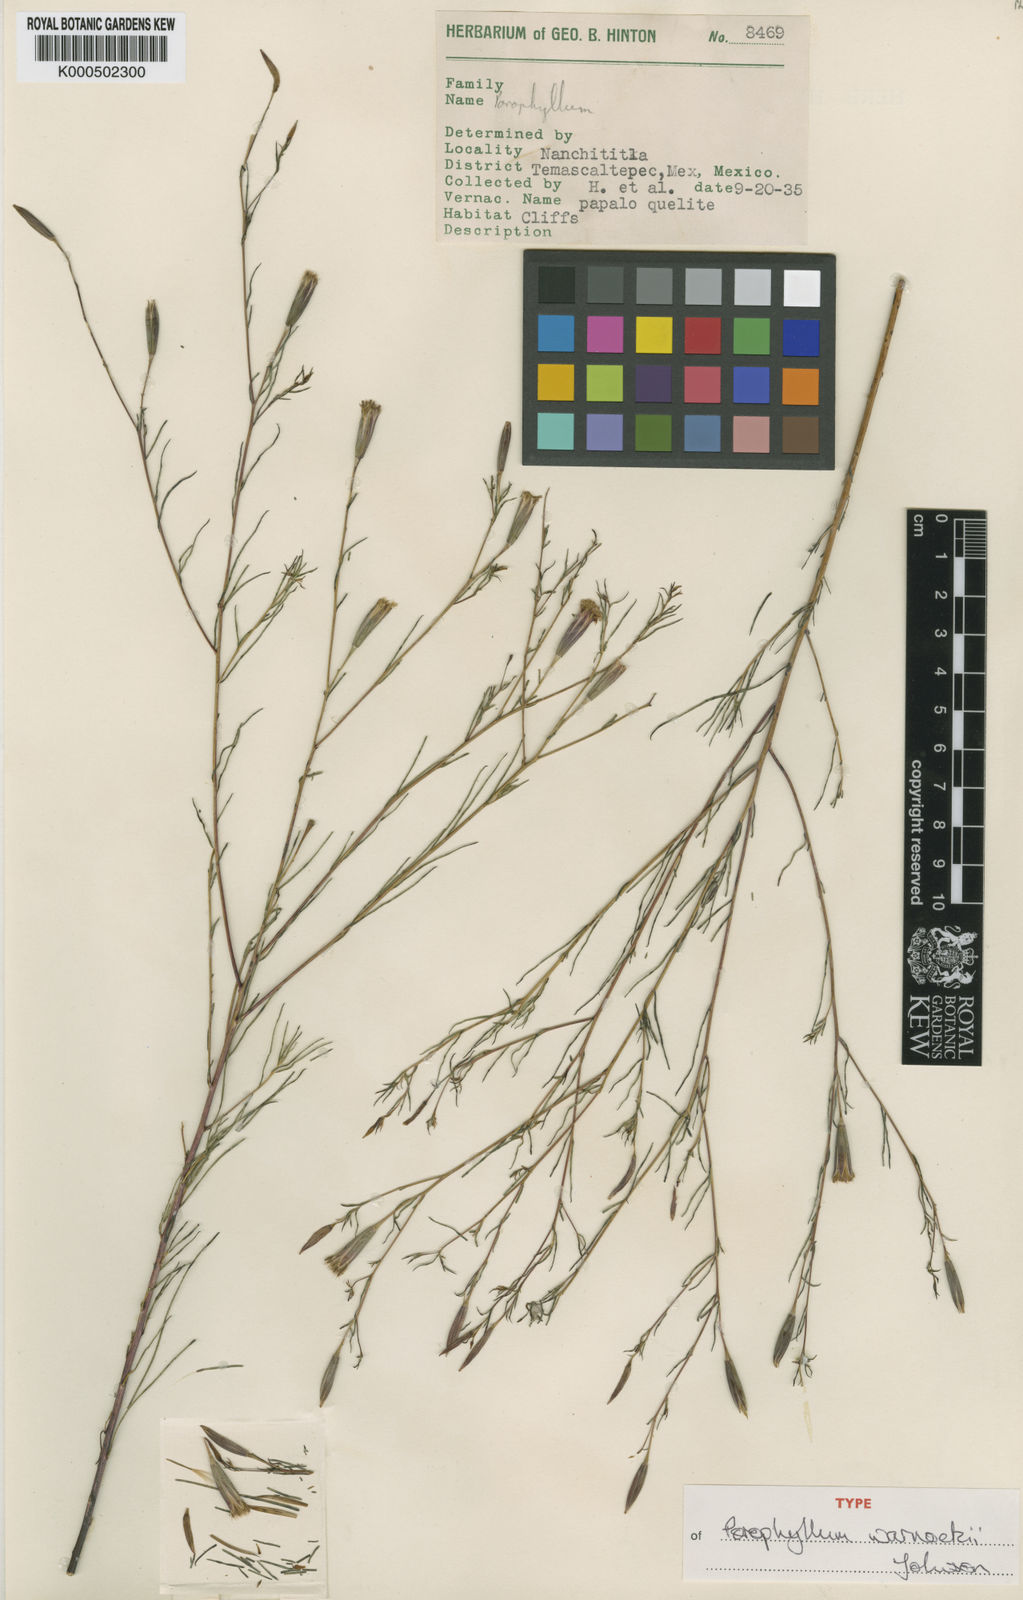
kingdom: Plantae
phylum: Tracheophyta
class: Magnoliopsida
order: Asterales
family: Asteraceae
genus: Porophyllum
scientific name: Porophyllum warnockii
